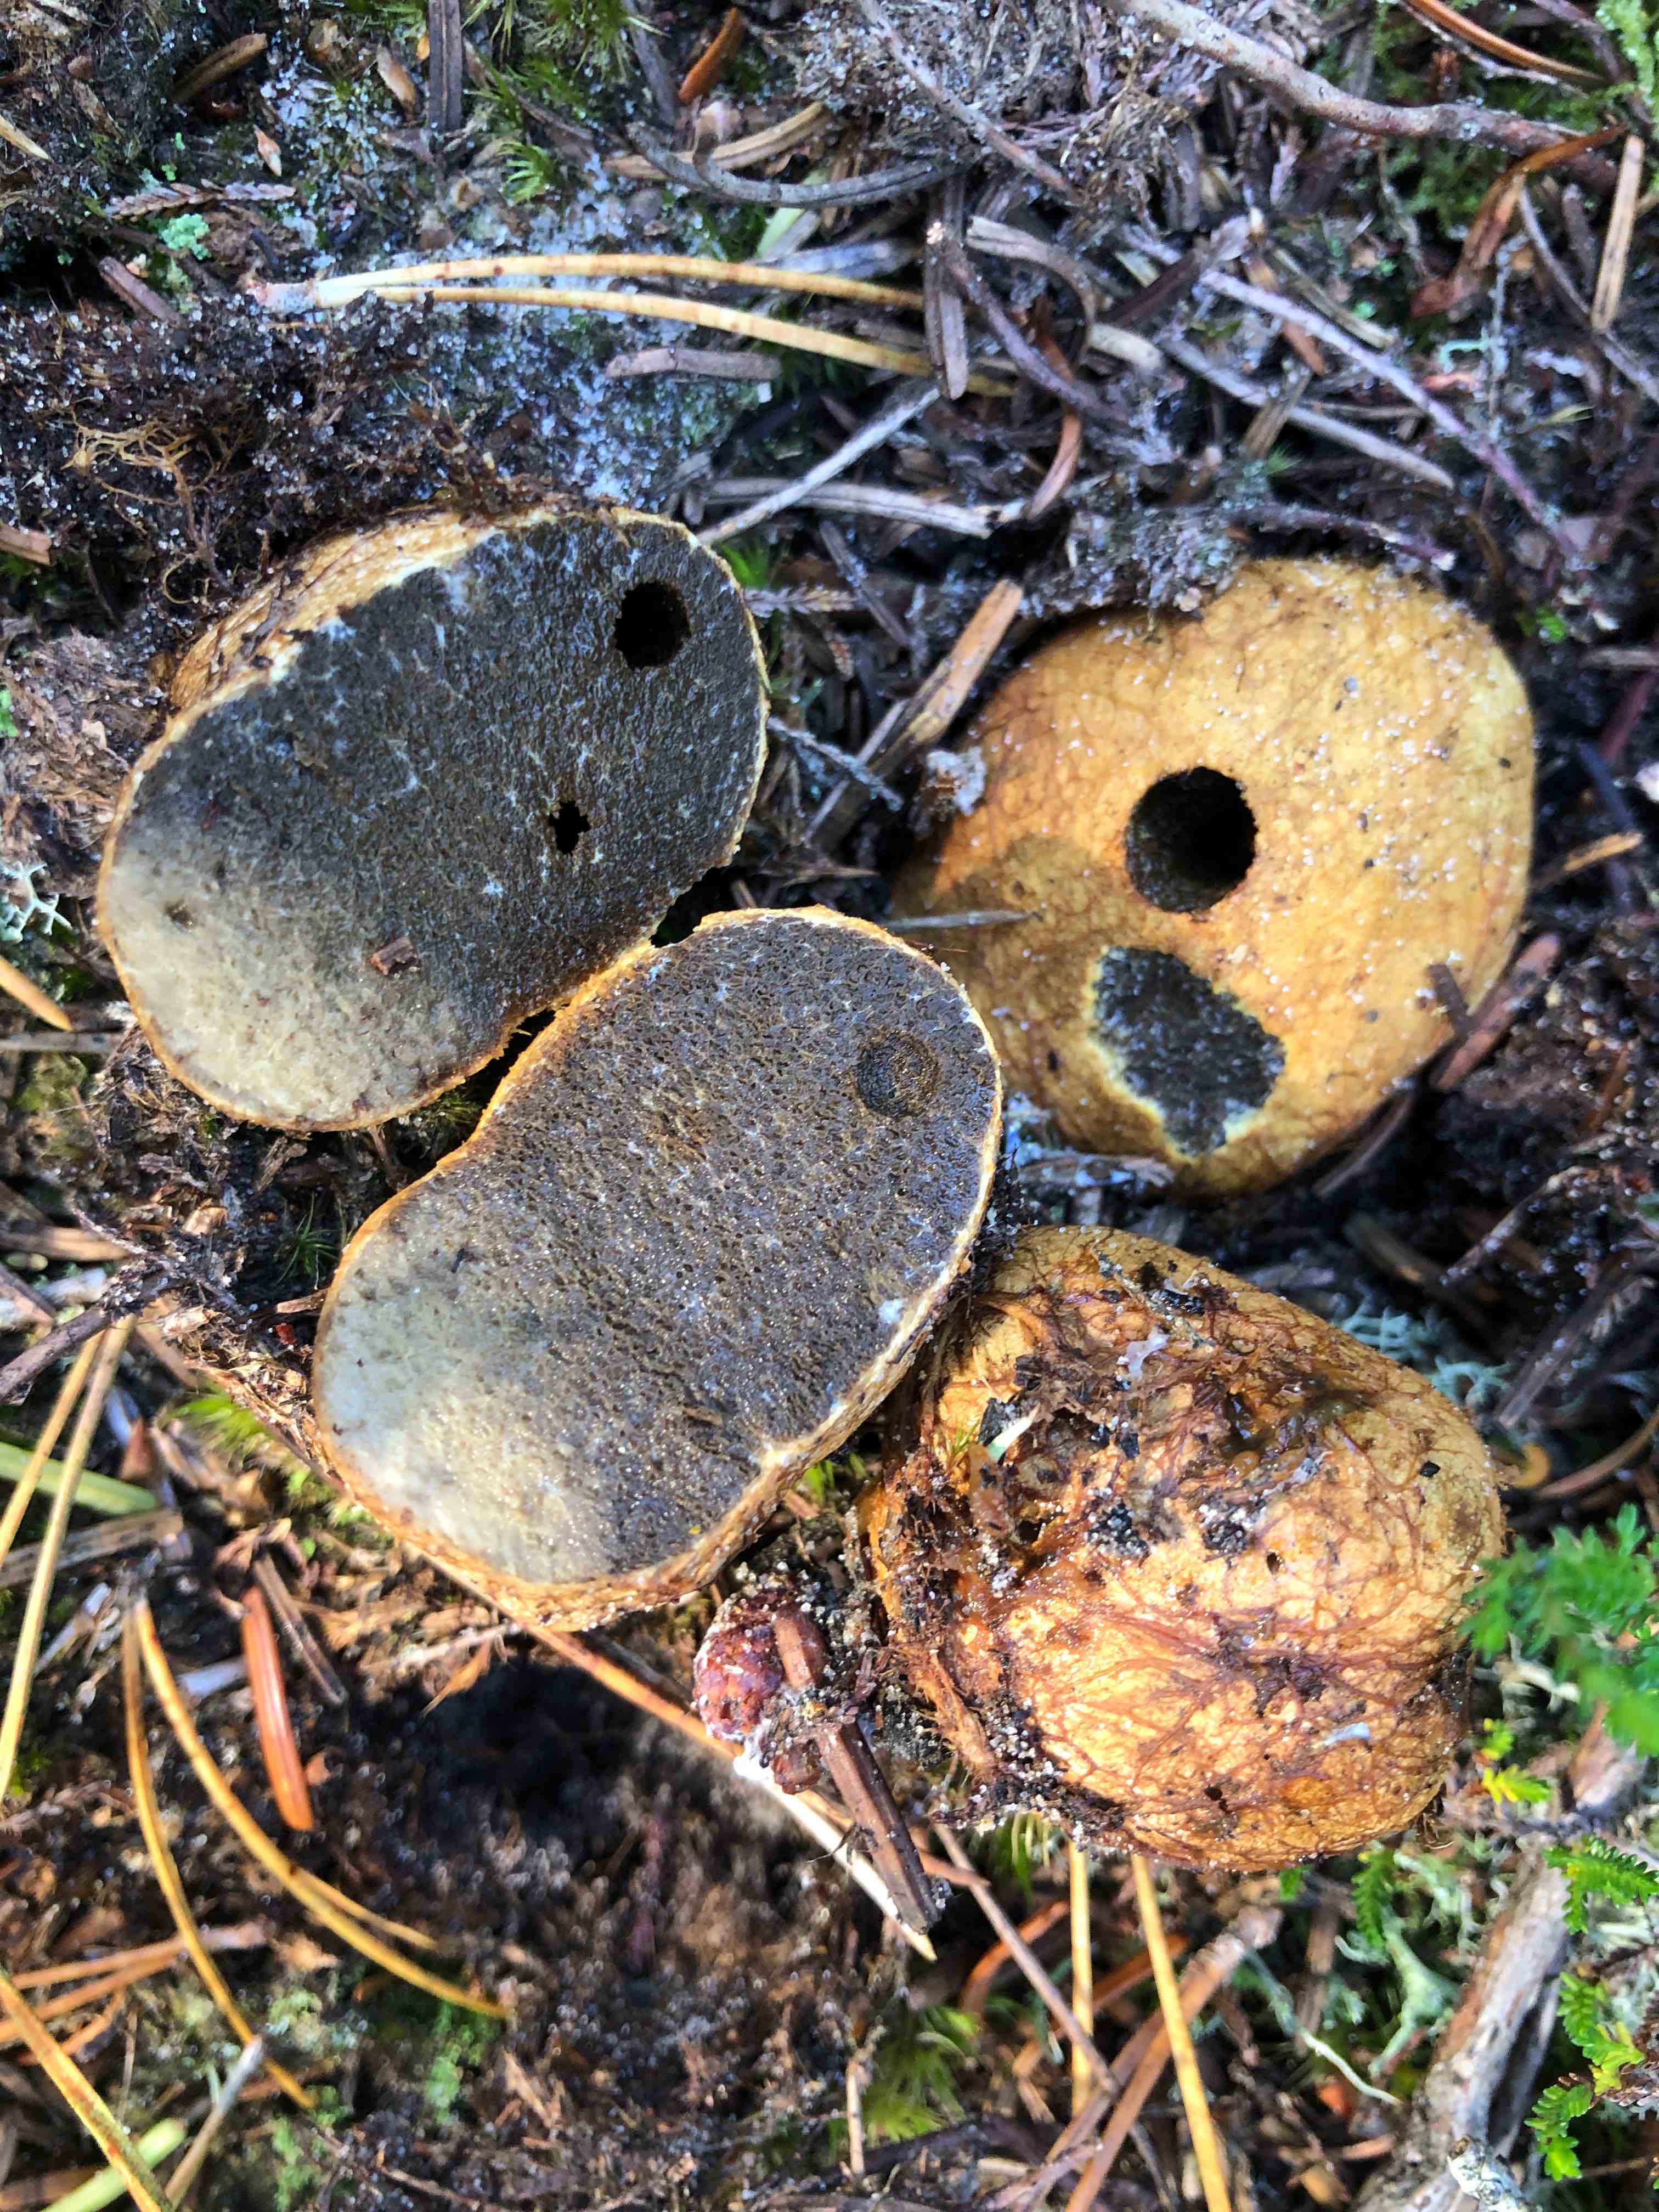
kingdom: Fungi
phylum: Basidiomycota
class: Agaricomycetes
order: Boletales
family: Rhizopogonaceae
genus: Rhizopogon
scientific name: Rhizopogon obtextus
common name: gul skægtrøffel
